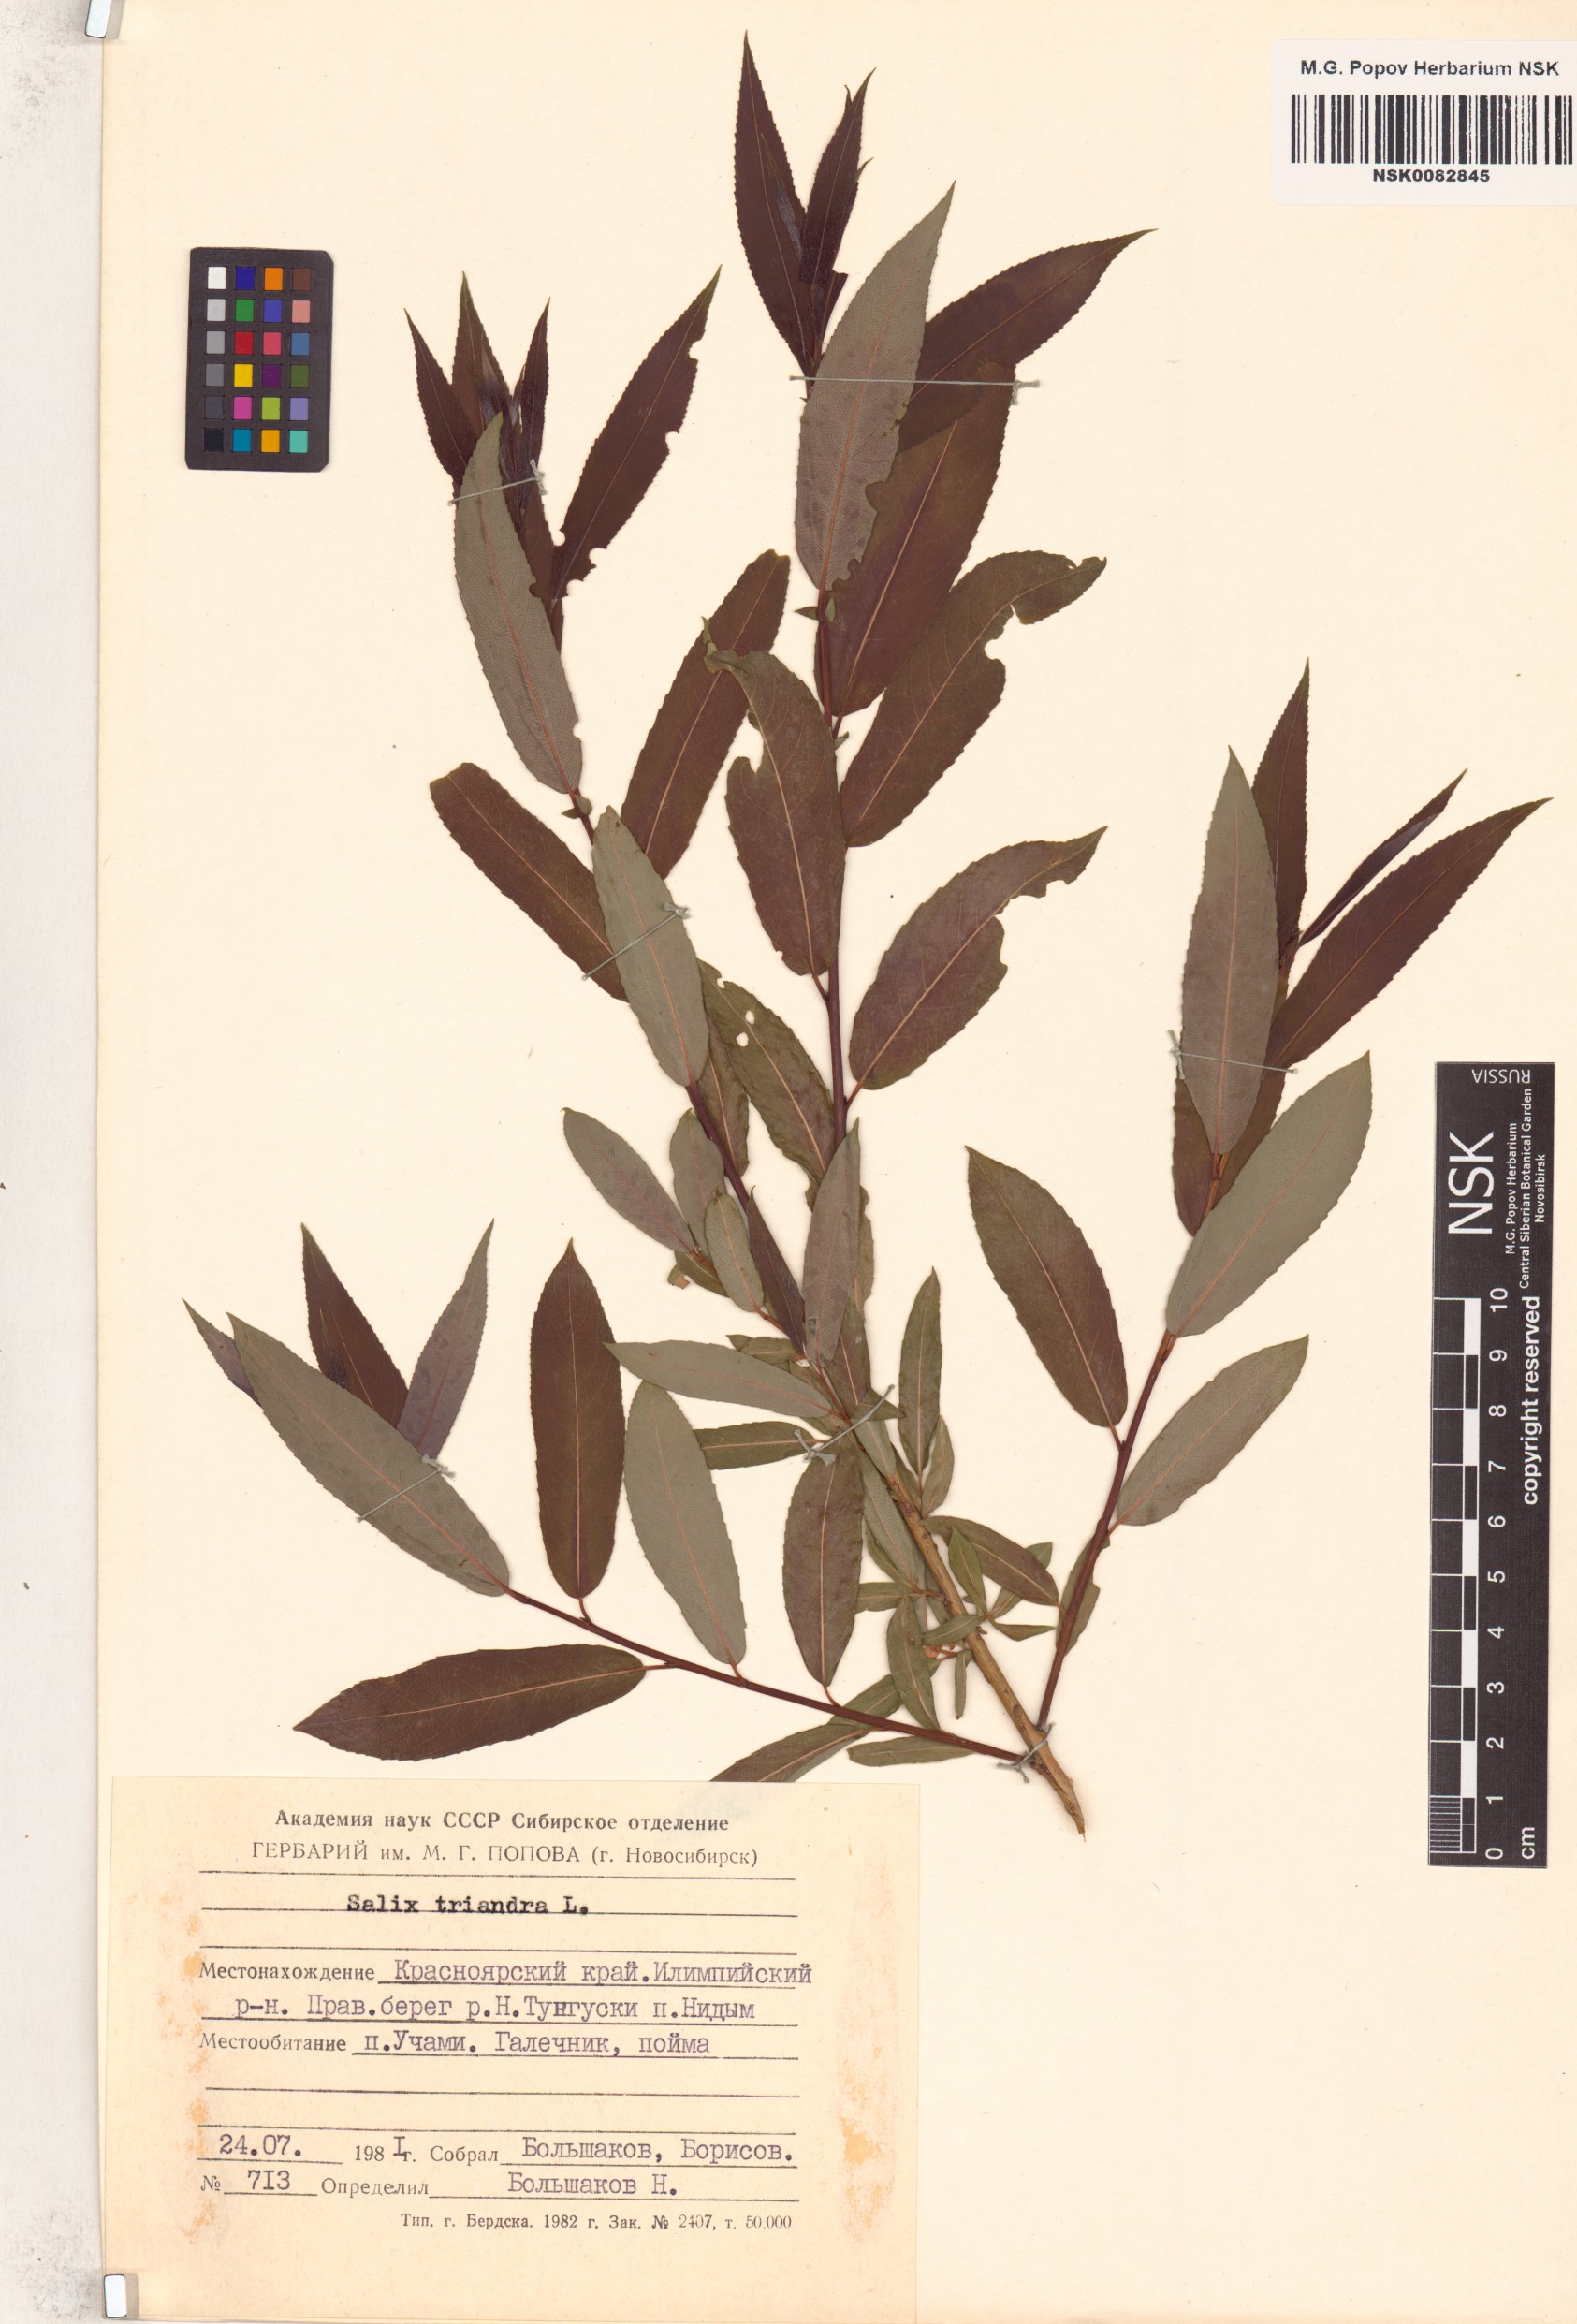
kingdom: Plantae
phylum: Tracheophyta
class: Magnoliopsida
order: Malpighiales
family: Salicaceae
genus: Salix
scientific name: Salix triandra
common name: Almond willow
